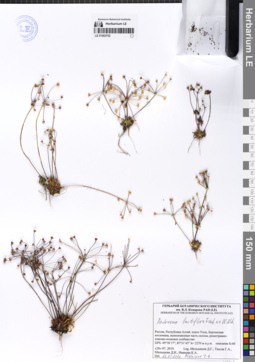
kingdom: Plantae
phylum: Tracheophyta
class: Magnoliopsida
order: Ericales
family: Primulaceae
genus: Androsace
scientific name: Androsace lactiflora
